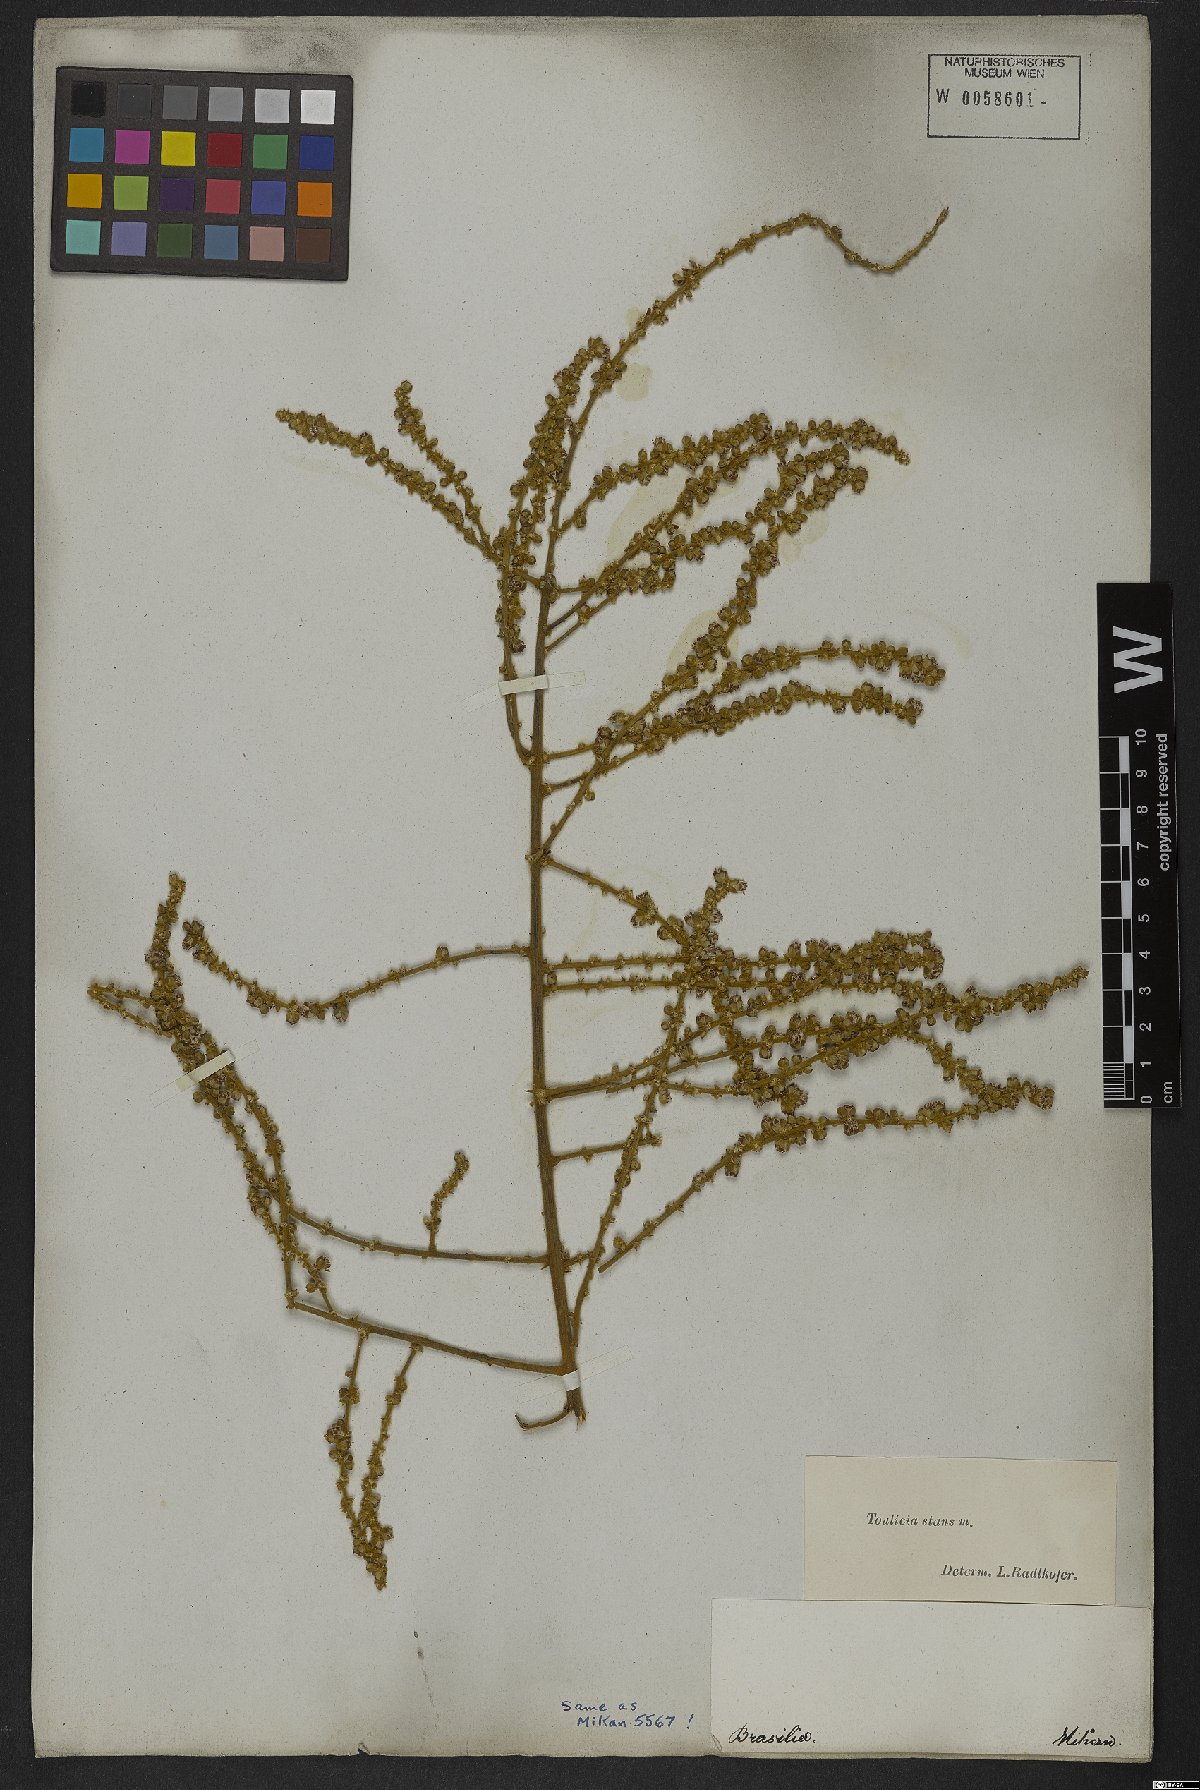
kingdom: Plantae
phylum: Tracheophyta
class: Magnoliopsida
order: Sapindales
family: Sapindaceae
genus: Toulicia
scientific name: Toulicia stans
